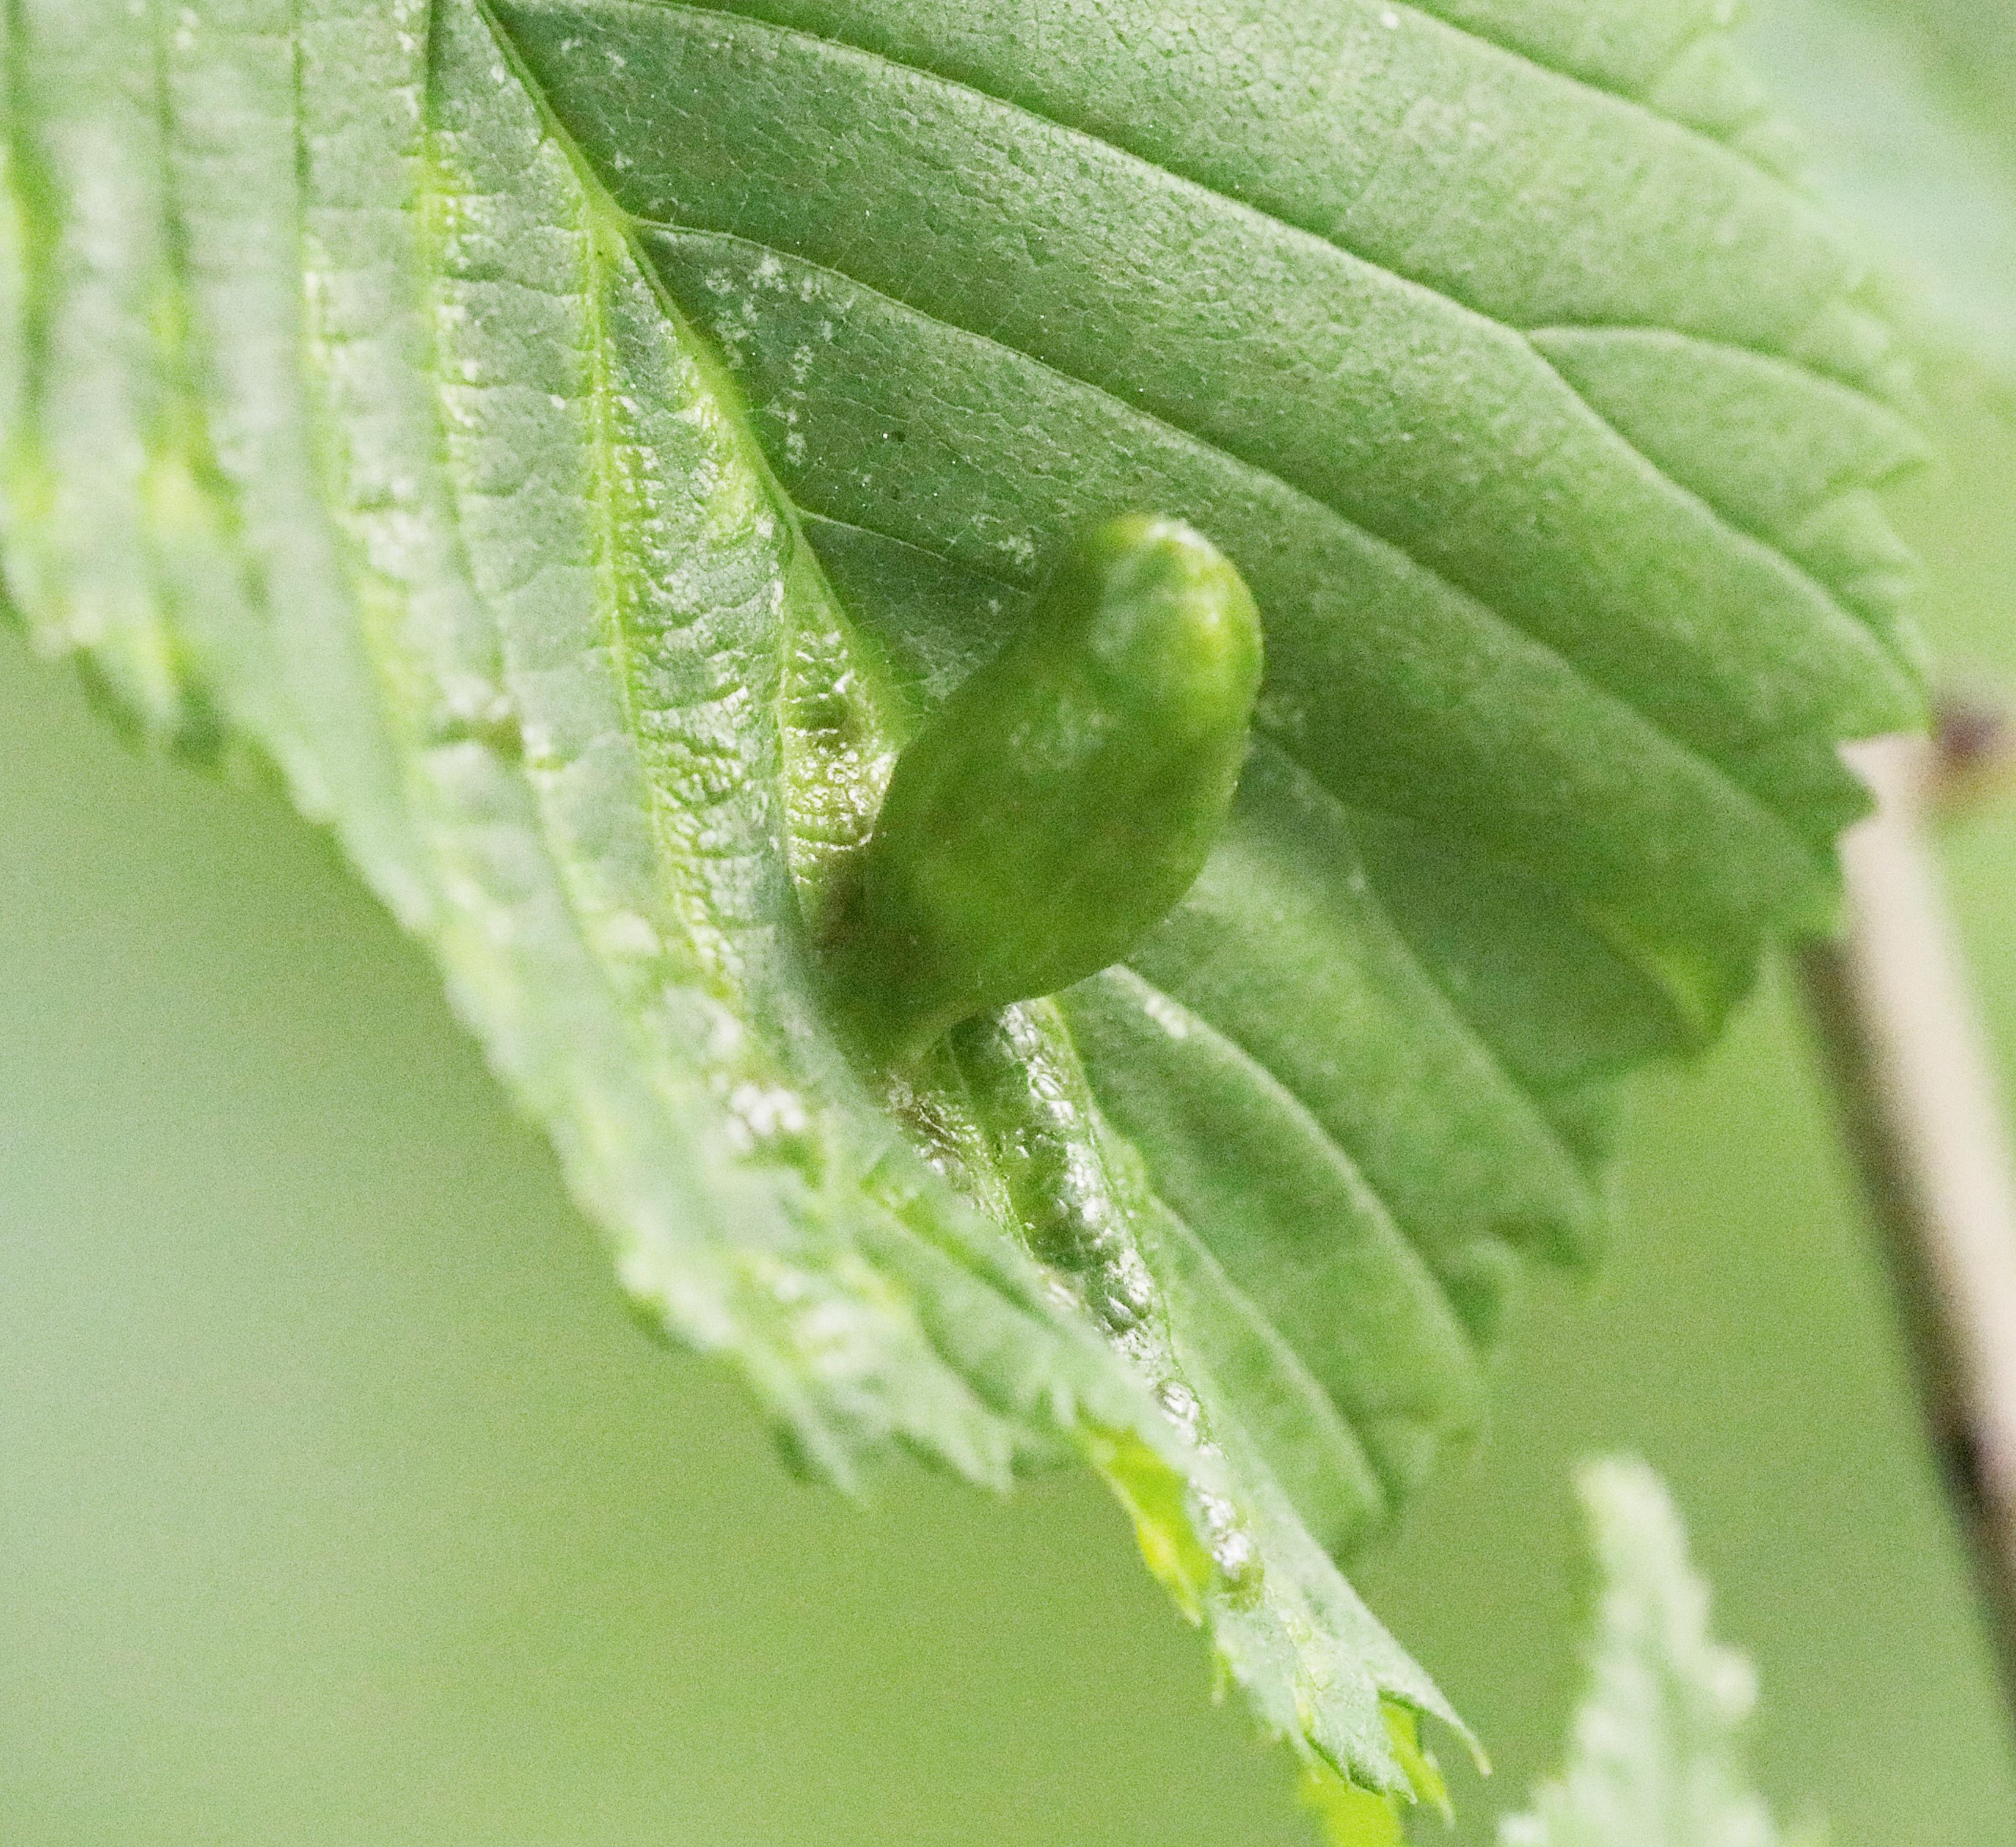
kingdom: Animalia
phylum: Arthropoda
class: Insecta
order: Hemiptera
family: Aphididae
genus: Tetraneura
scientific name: Tetraneura ulmi
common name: Elmegallelus
